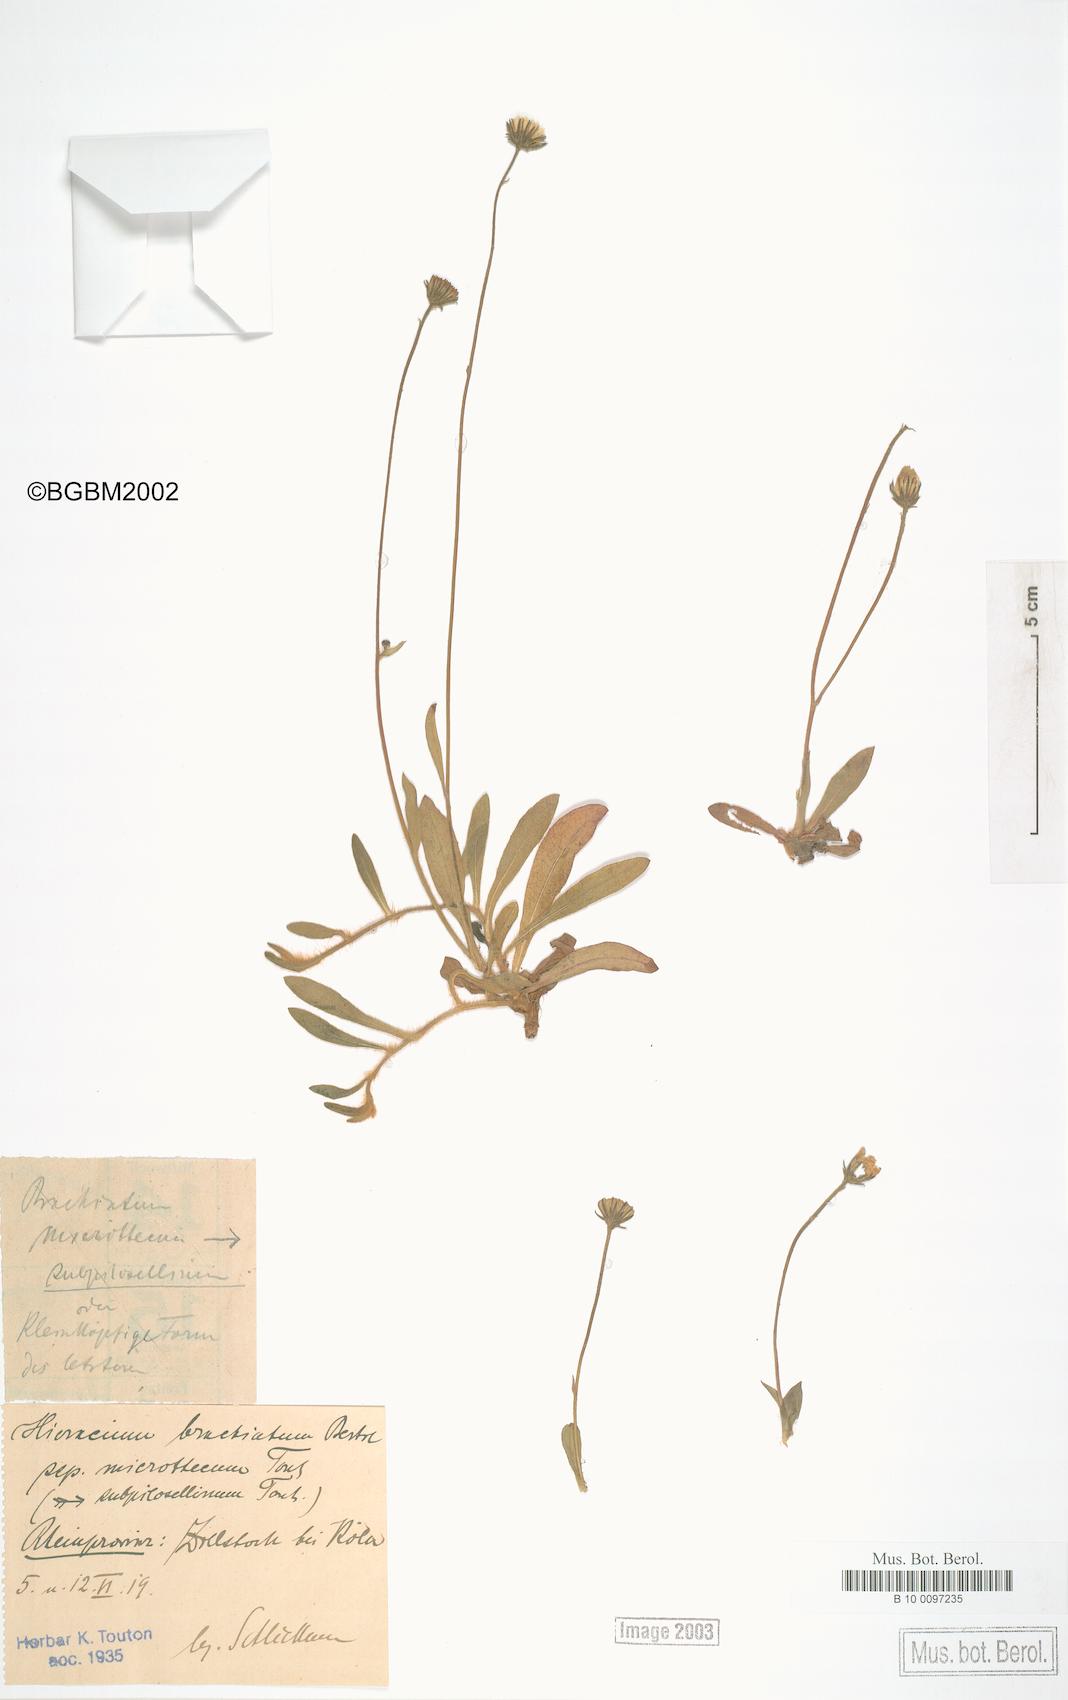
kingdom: Plantae
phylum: Tracheophyta
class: Magnoliopsida
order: Asterales
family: Asteraceae
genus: Pilosella
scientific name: Pilosella acutifolia
